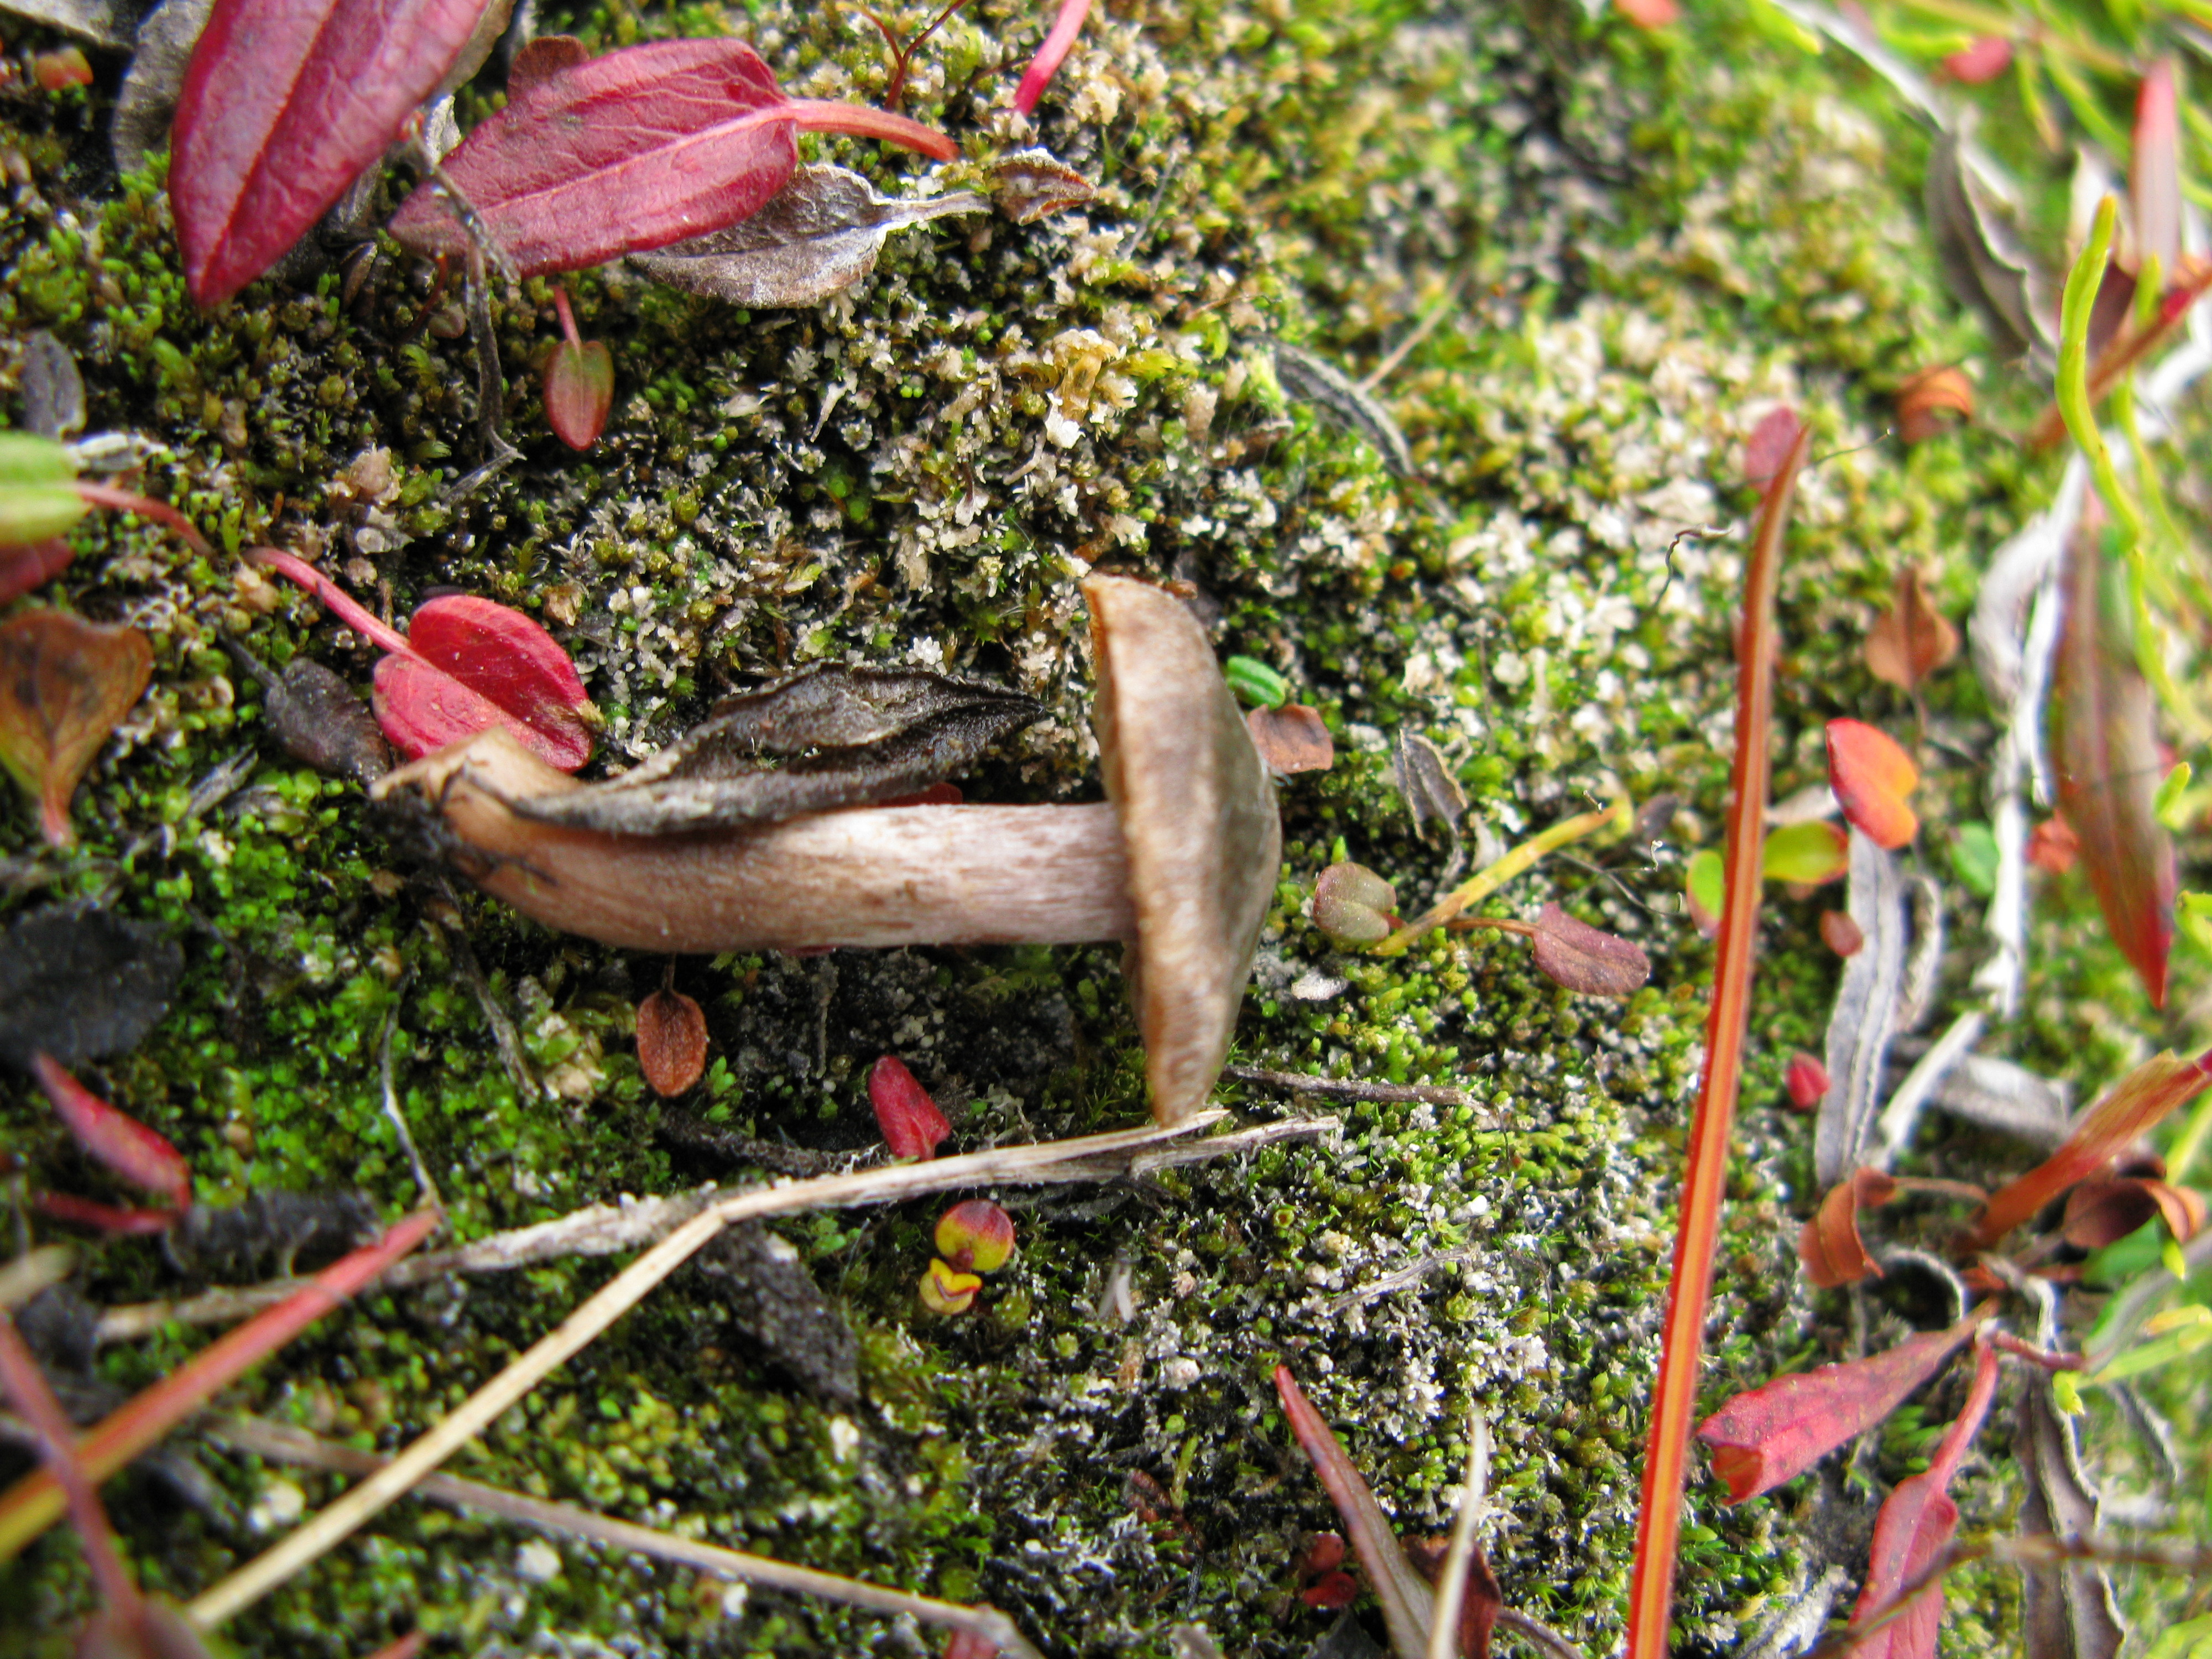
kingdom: Fungi
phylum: Basidiomycota
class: Agaricomycetes
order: Agaricales
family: Cortinariaceae
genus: Cortinarius
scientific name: Cortinarius pulchripes
